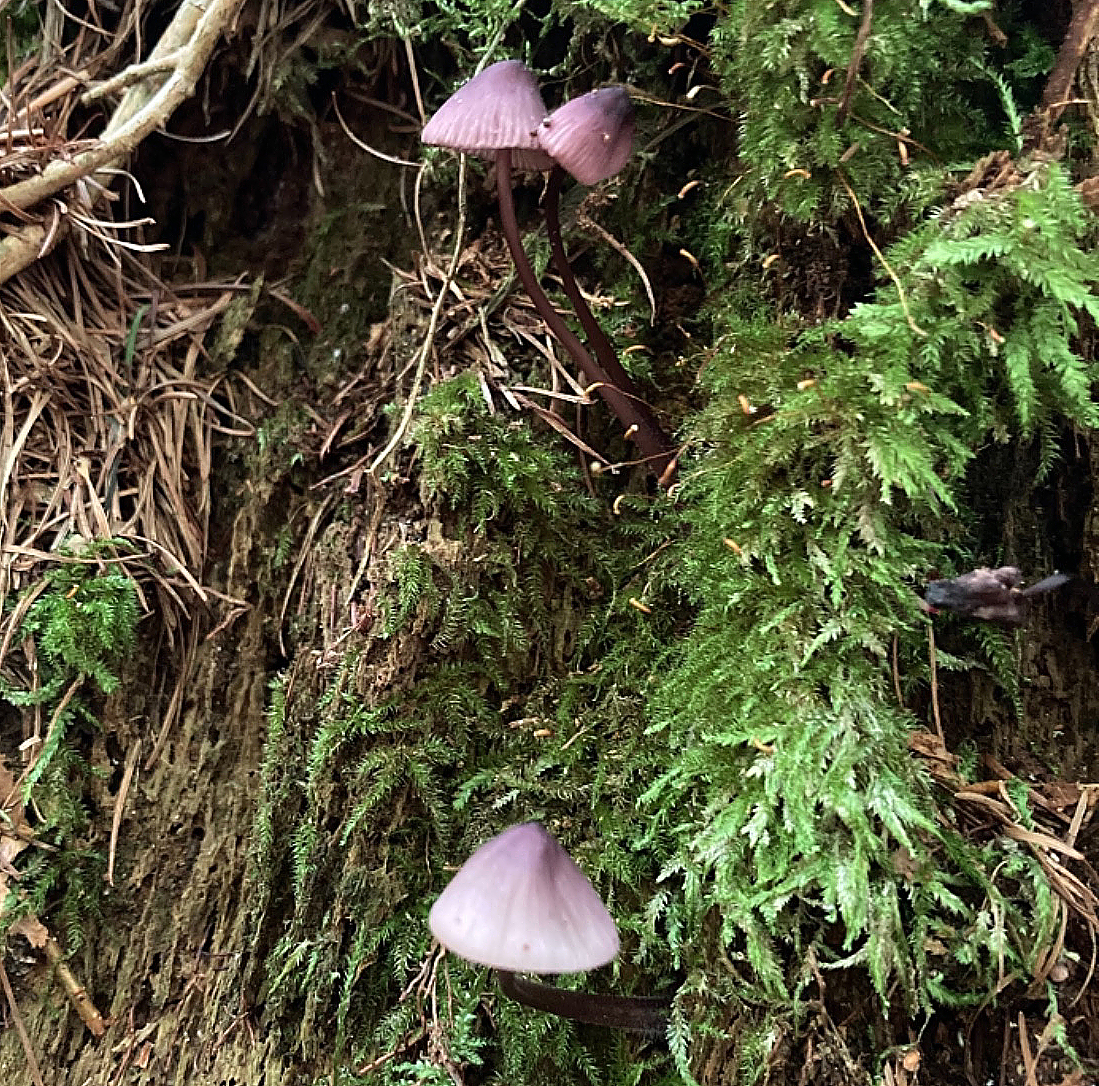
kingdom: Fungi
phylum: Basidiomycota
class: Agaricomycetes
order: Agaricales
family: Mycenaceae
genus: Mycena
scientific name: Mycena purpureofusca
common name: purpur-huesvamp
